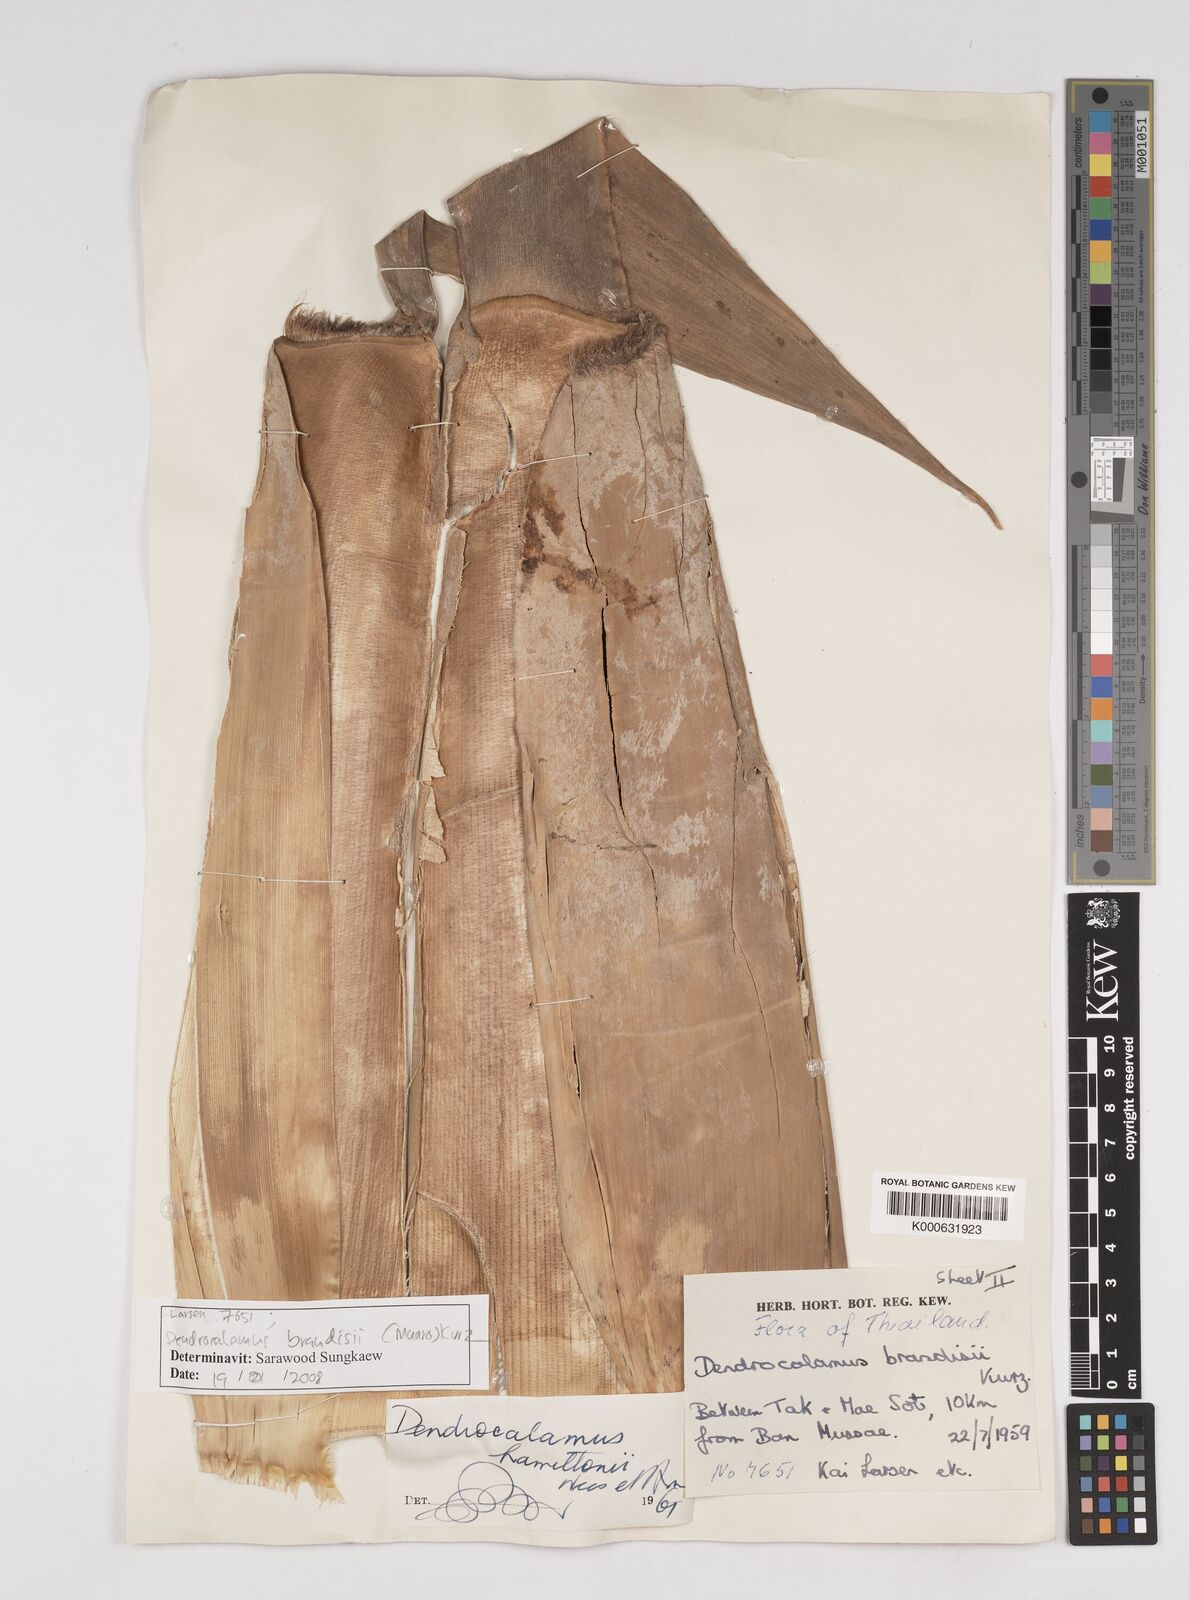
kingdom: Plantae
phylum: Tracheophyta
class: Liliopsida
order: Poales
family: Poaceae
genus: Dendrocalamus
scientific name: Dendrocalamus brandisii
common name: Velvetleaf bamboo
